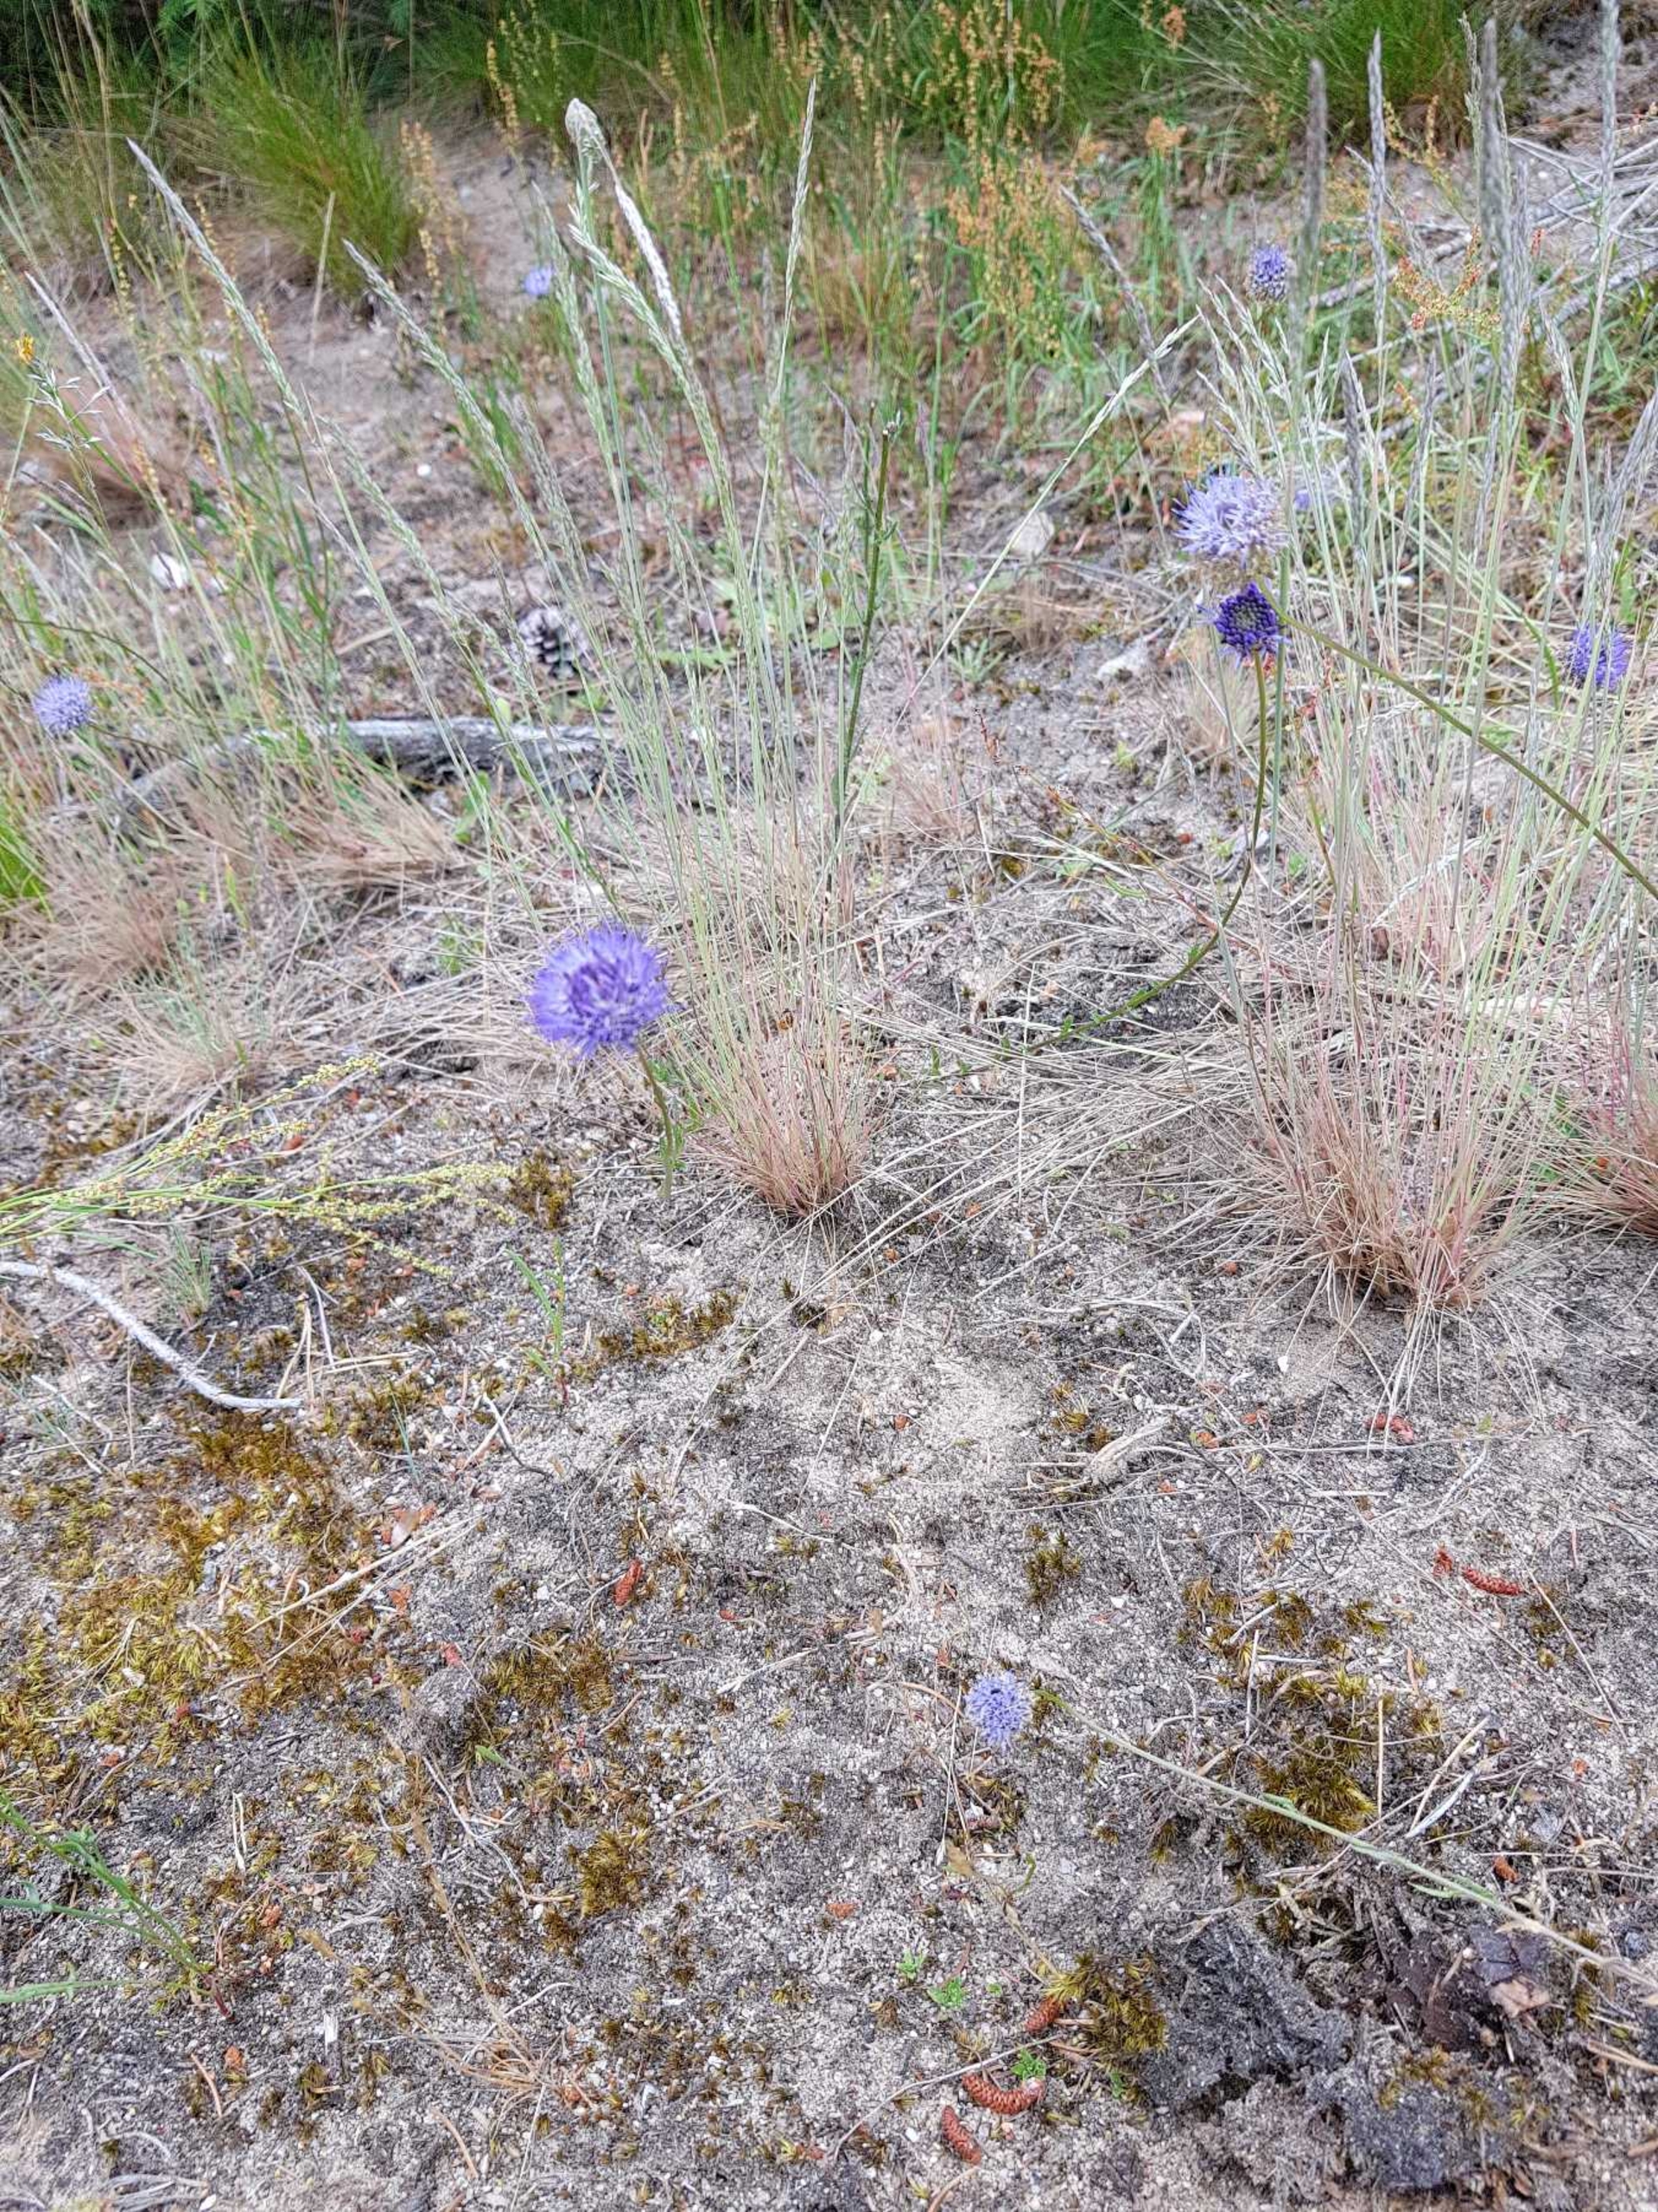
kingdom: Plantae
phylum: Tracheophyta
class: Magnoliopsida
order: Asterales
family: Campanulaceae
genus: Jasione
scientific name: Jasione montana
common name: Blåmunke
